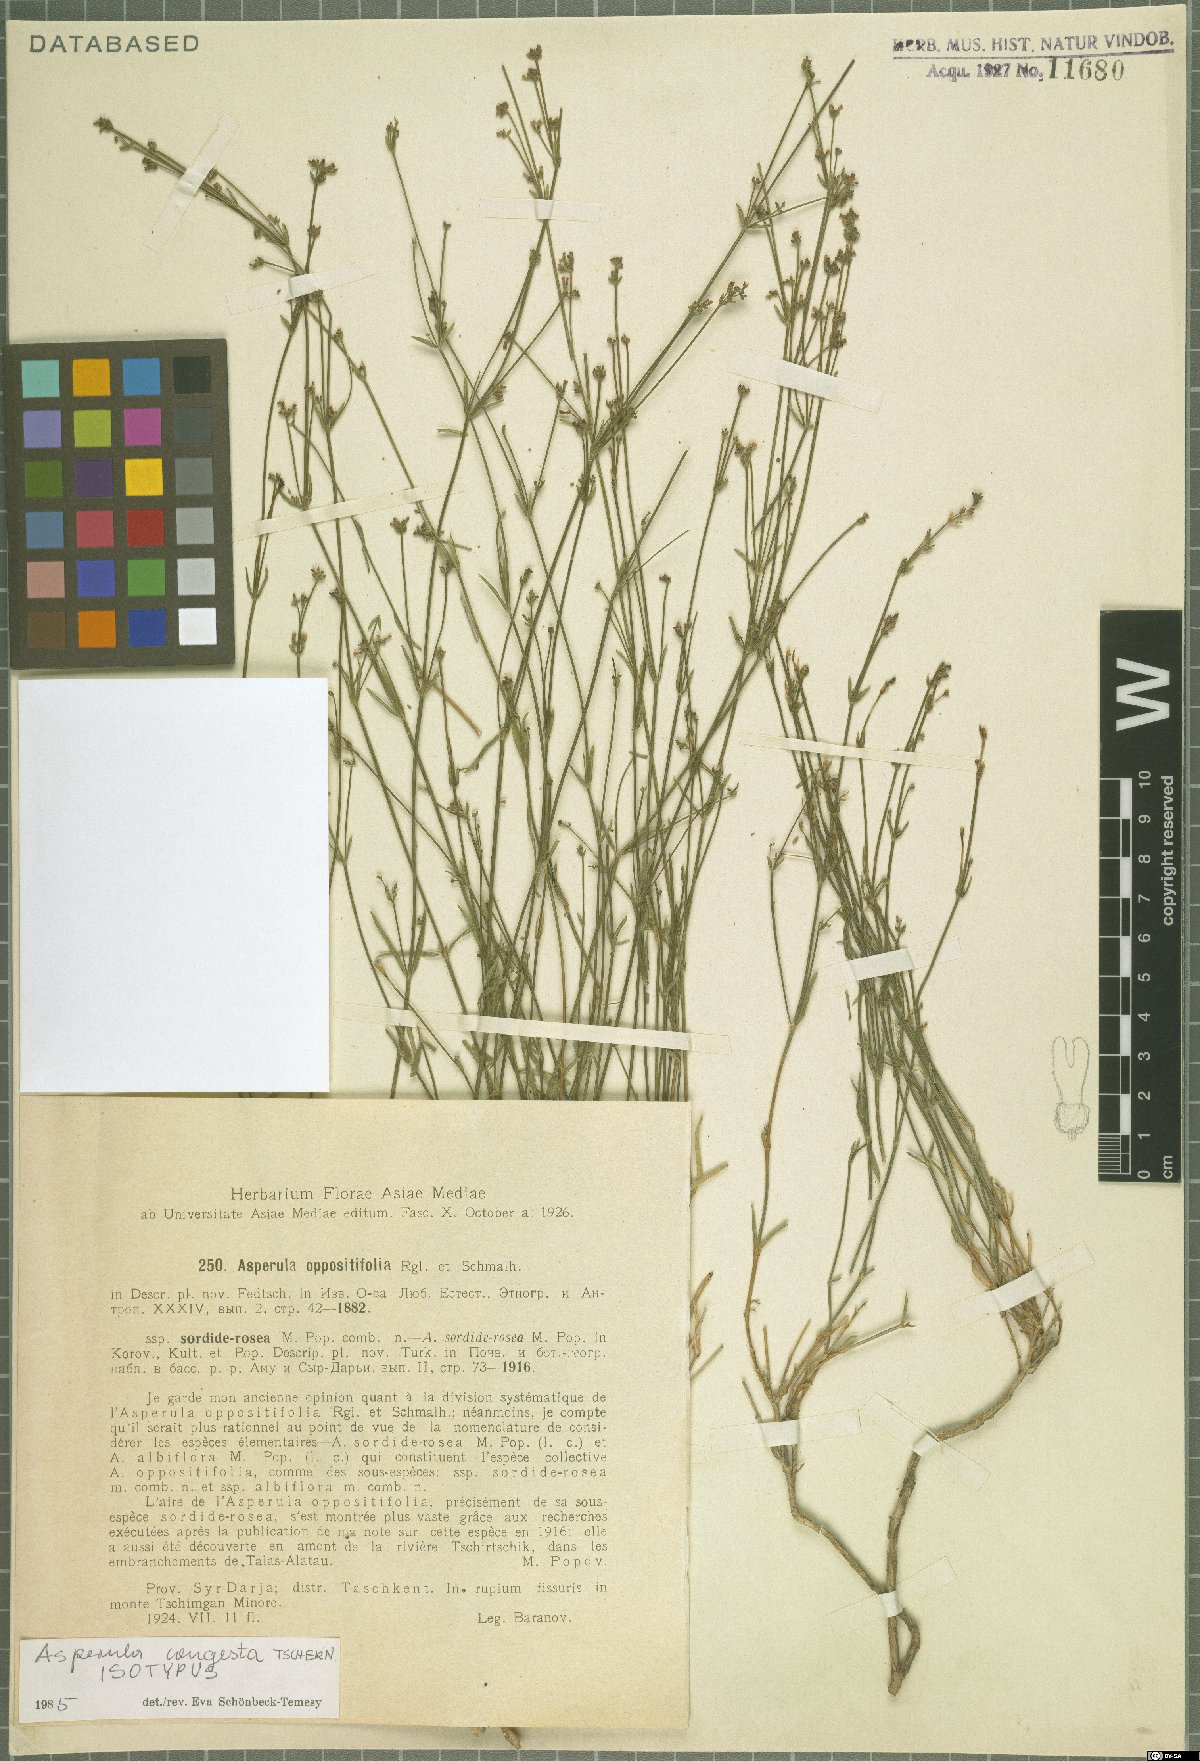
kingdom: Plantae
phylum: Tracheophyta
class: Magnoliopsida
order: Gentianales
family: Rubiaceae
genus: Asperula
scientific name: Asperula congesta
